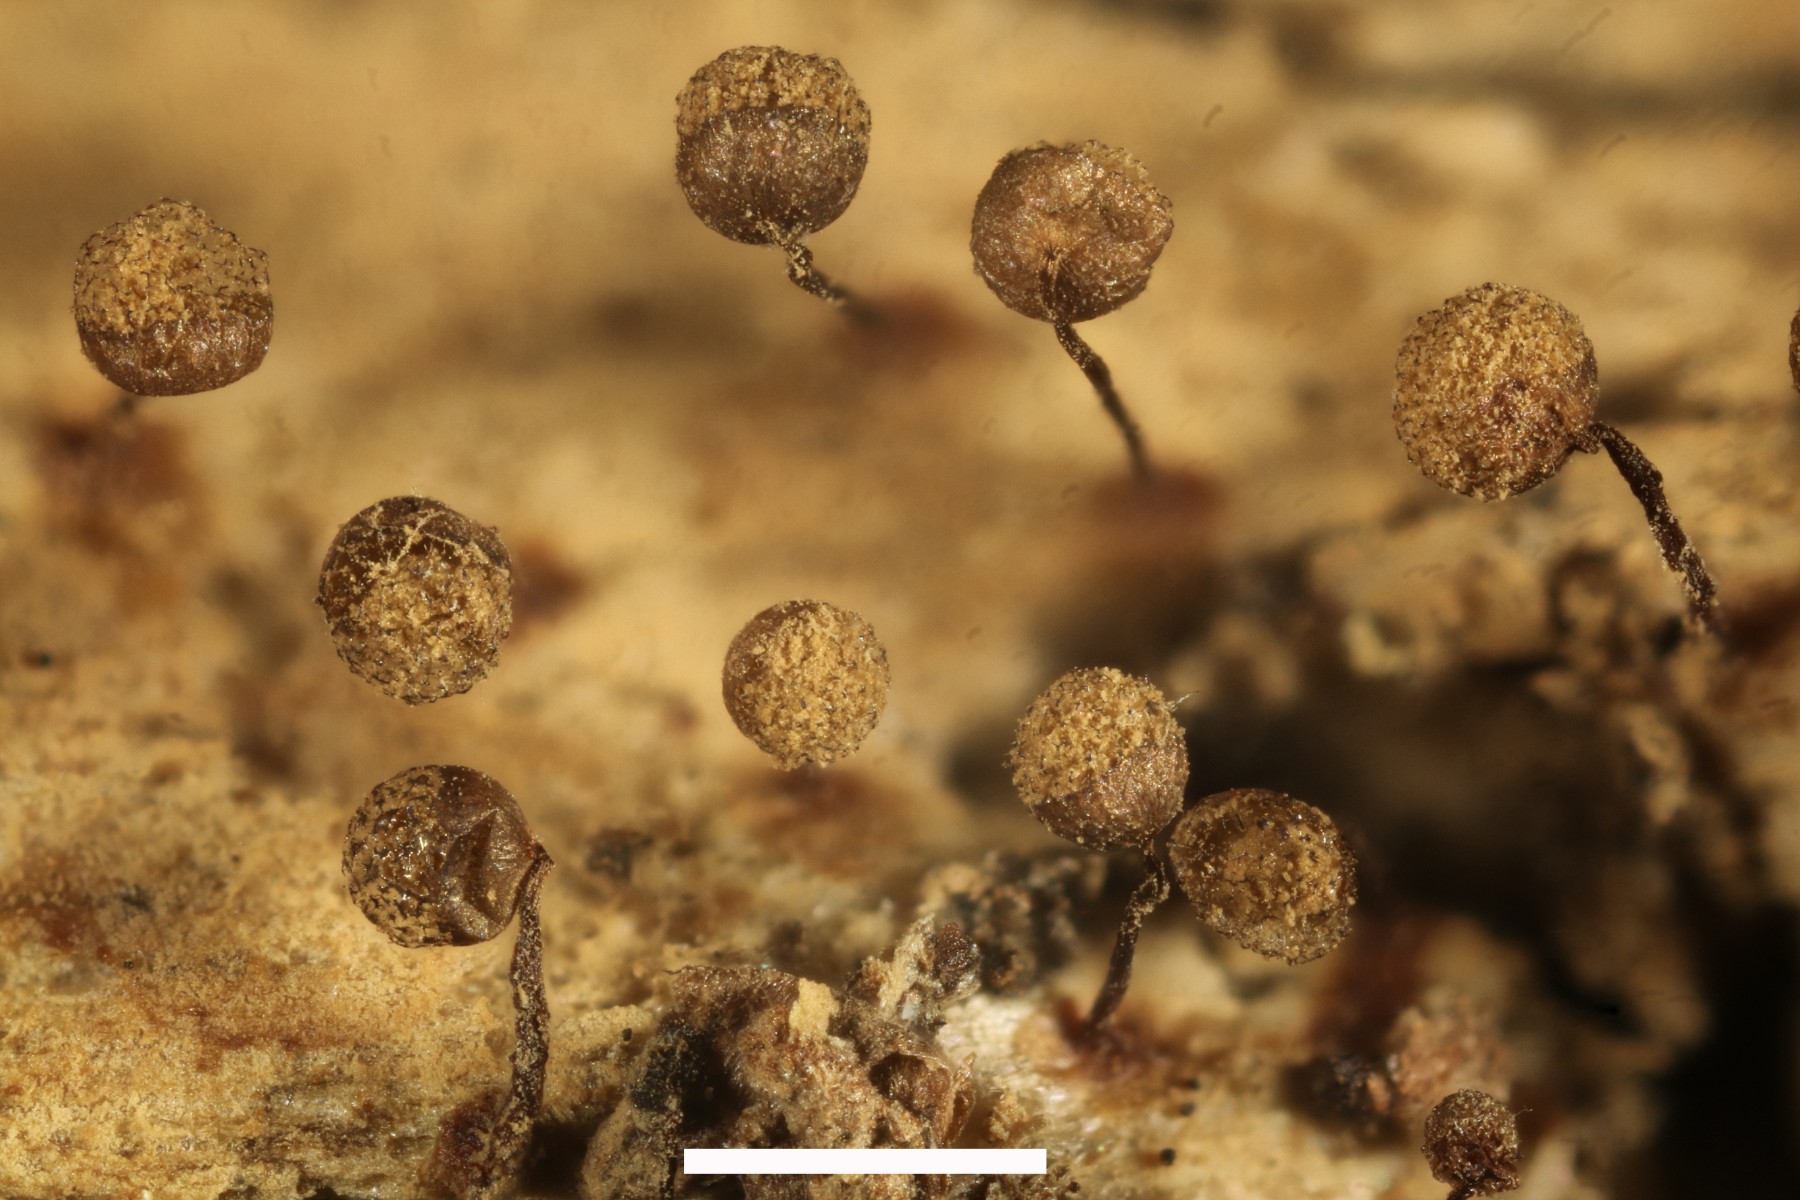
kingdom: Protozoa
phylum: Mycetozoa
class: Myxomycetes
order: Cribrariales
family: Cribrariaceae
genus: Cribraria
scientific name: Cribraria aurantiaca
